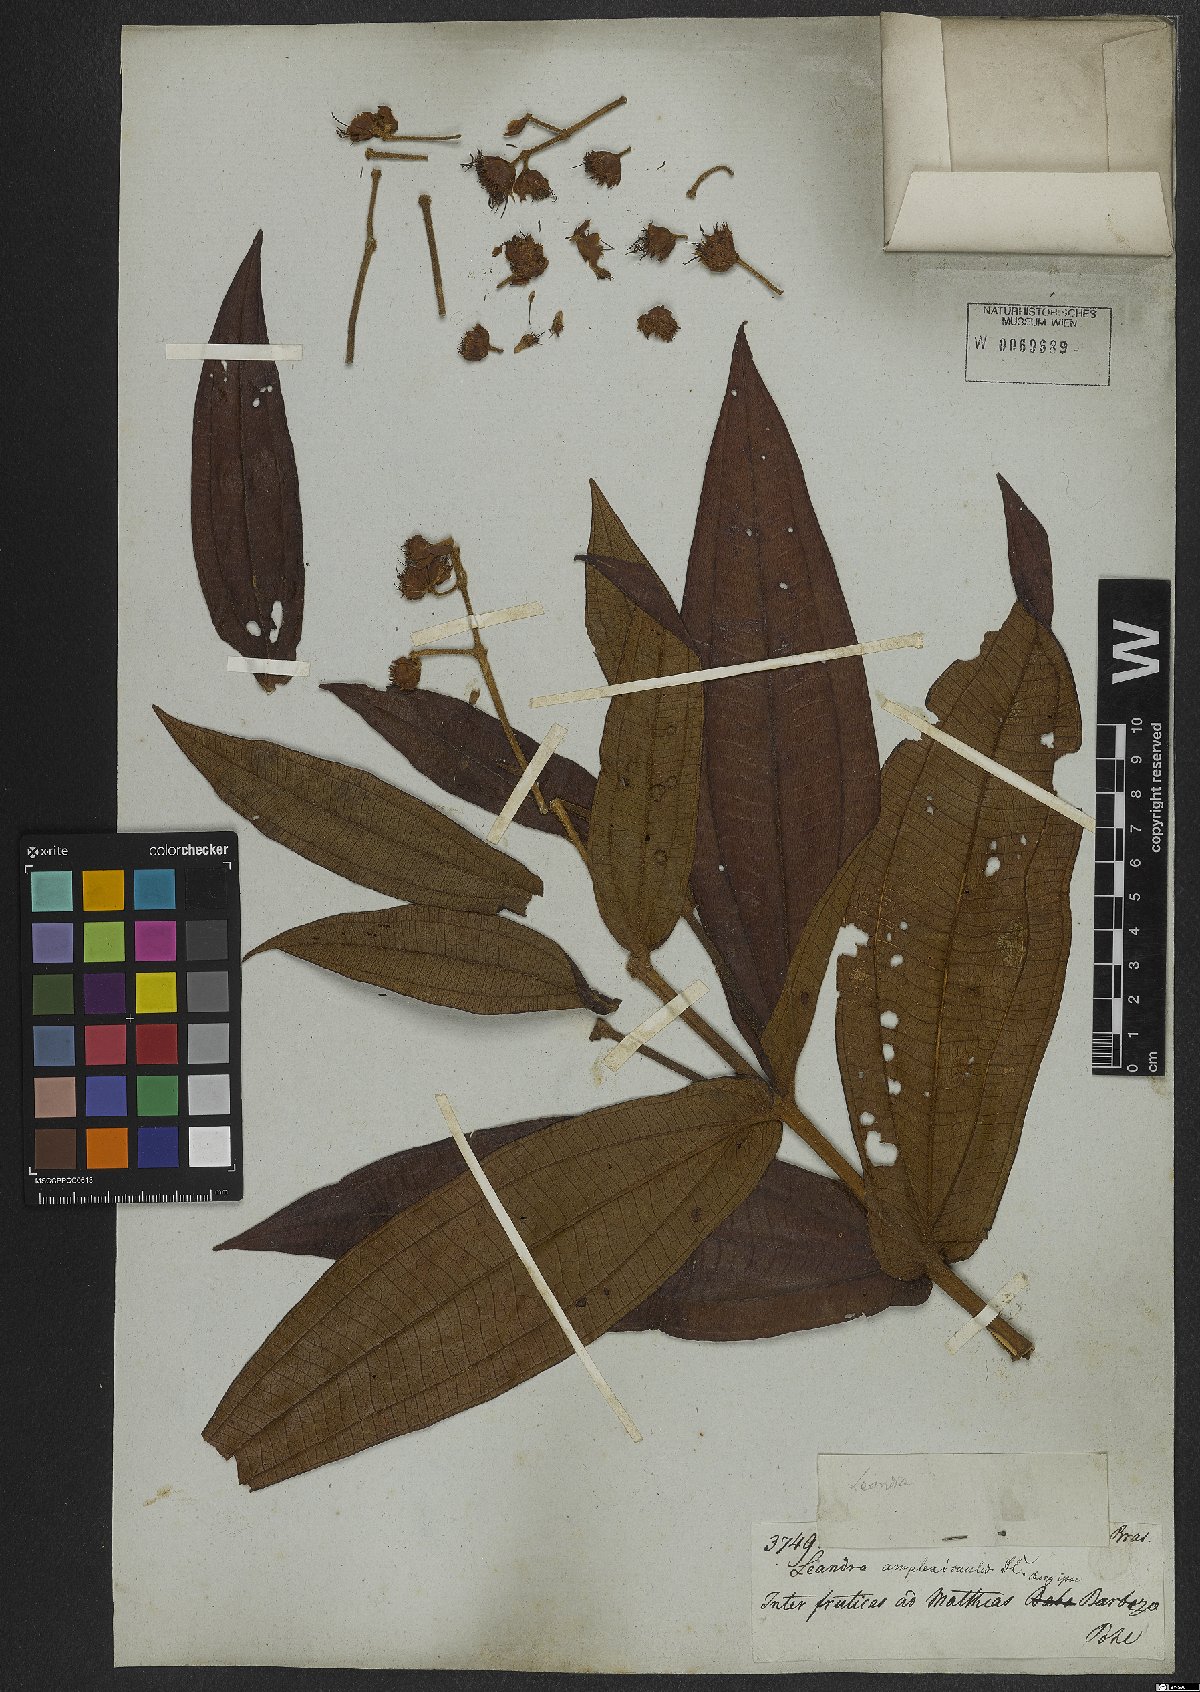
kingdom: Plantae
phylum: Tracheophyta
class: Magnoliopsida
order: Myrtales
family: Melastomataceae
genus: Miconia
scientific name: Miconia pectinata
